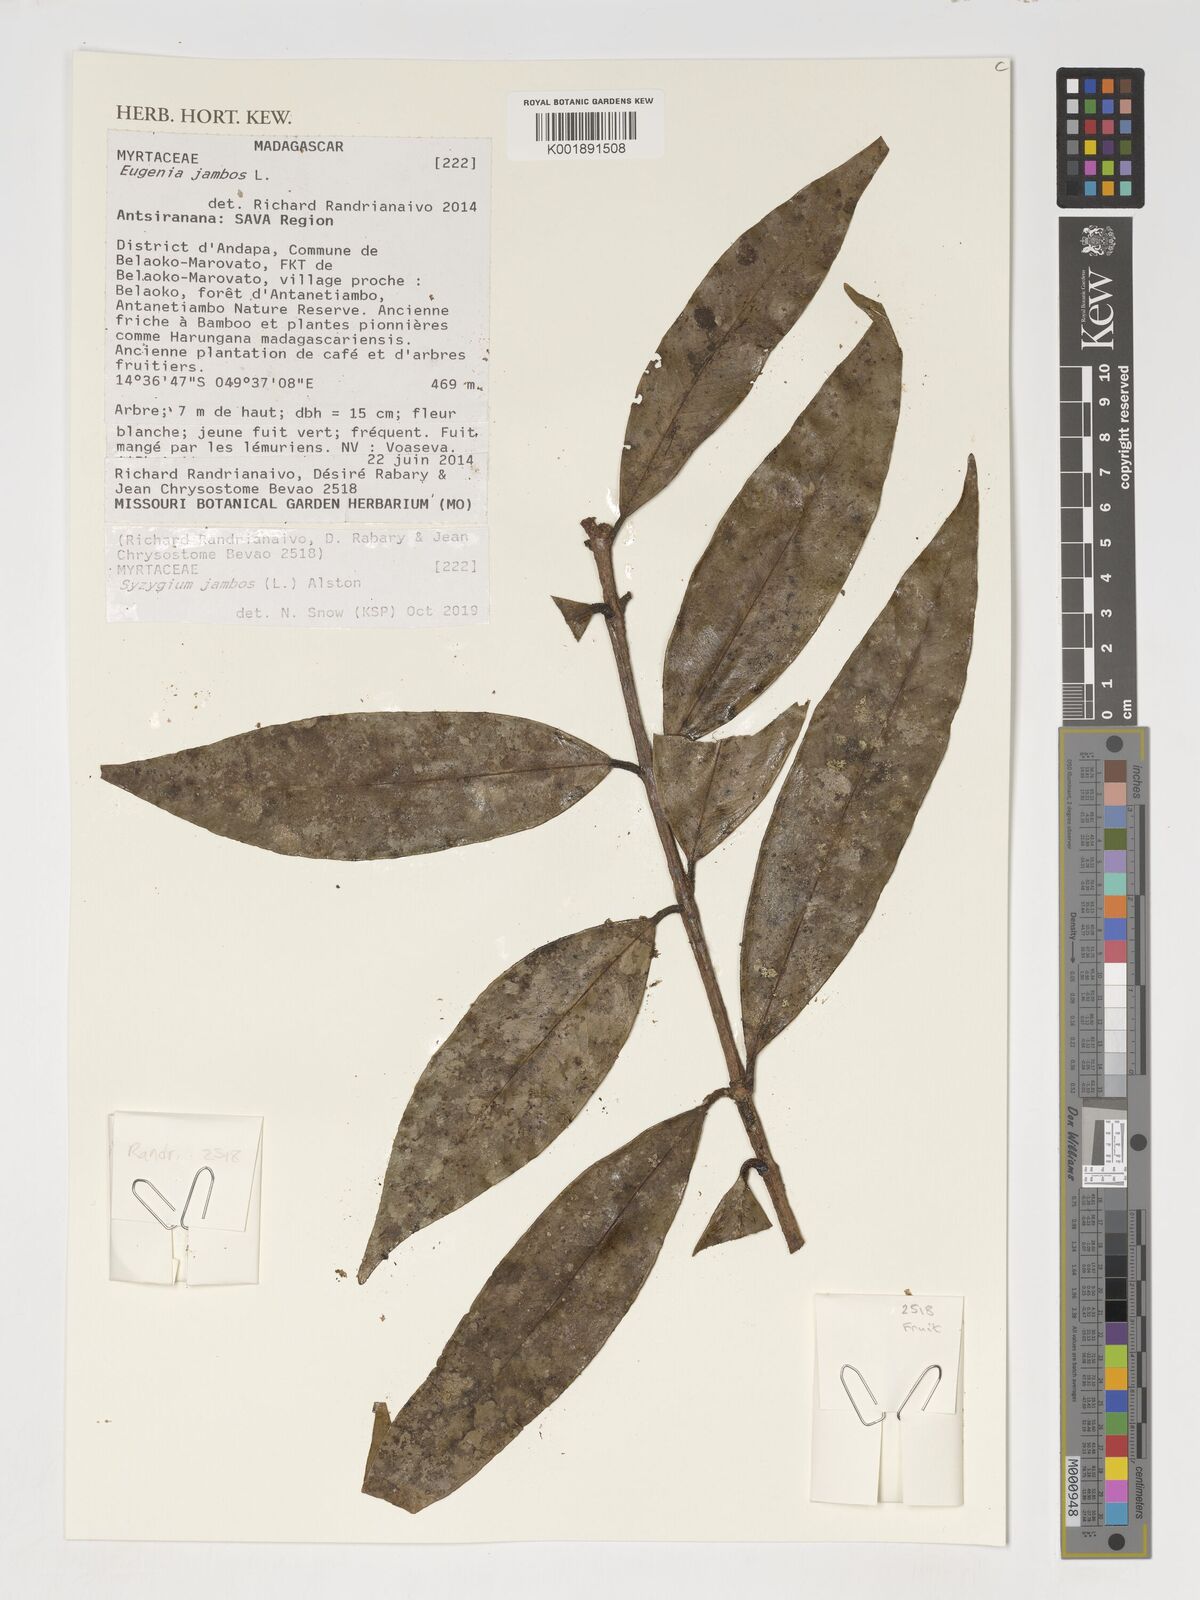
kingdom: Plantae
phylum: Tracheophyta
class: Magnoliopsida
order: Myrtales
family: Myrtaceae
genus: Syzygium
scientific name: Syzygium jambos
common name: Malabar plum
